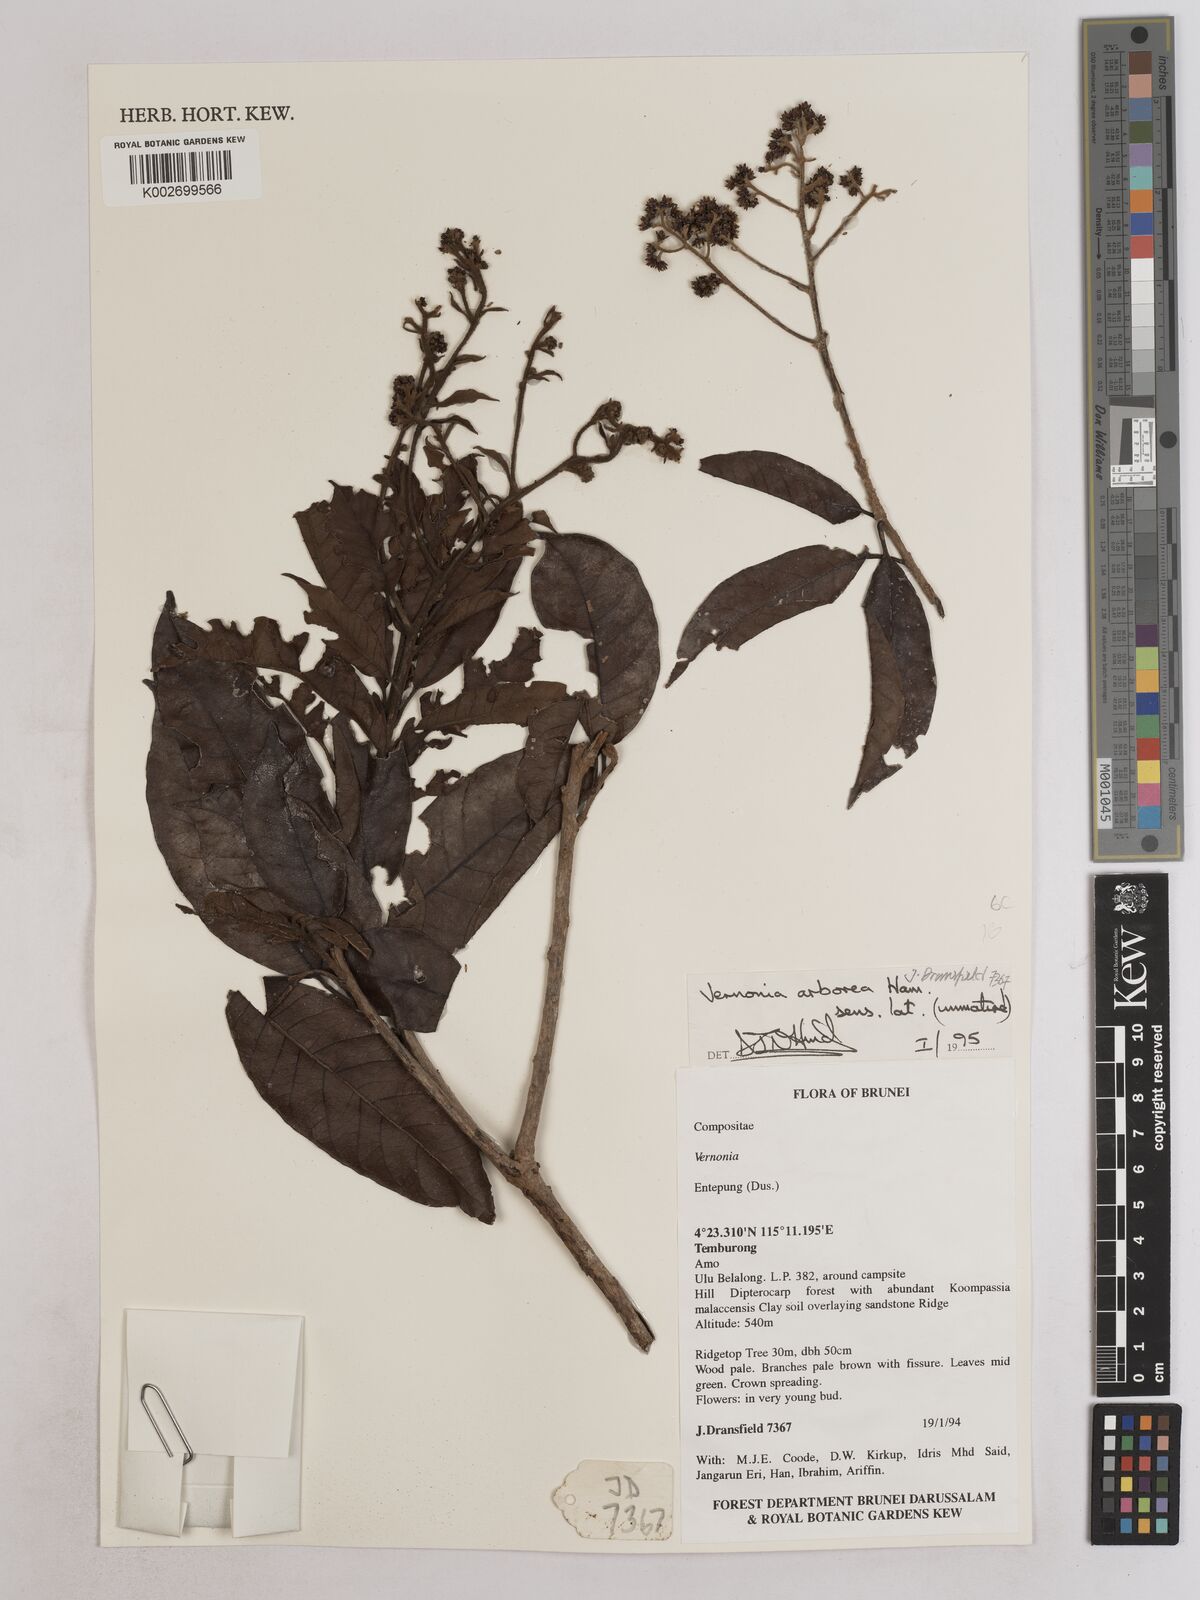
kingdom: Plantae
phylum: Tracheophyta
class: Magnoliopsida
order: Asterales
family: Asteraceae
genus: Strobocalyx
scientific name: Strobocalyx arborea
